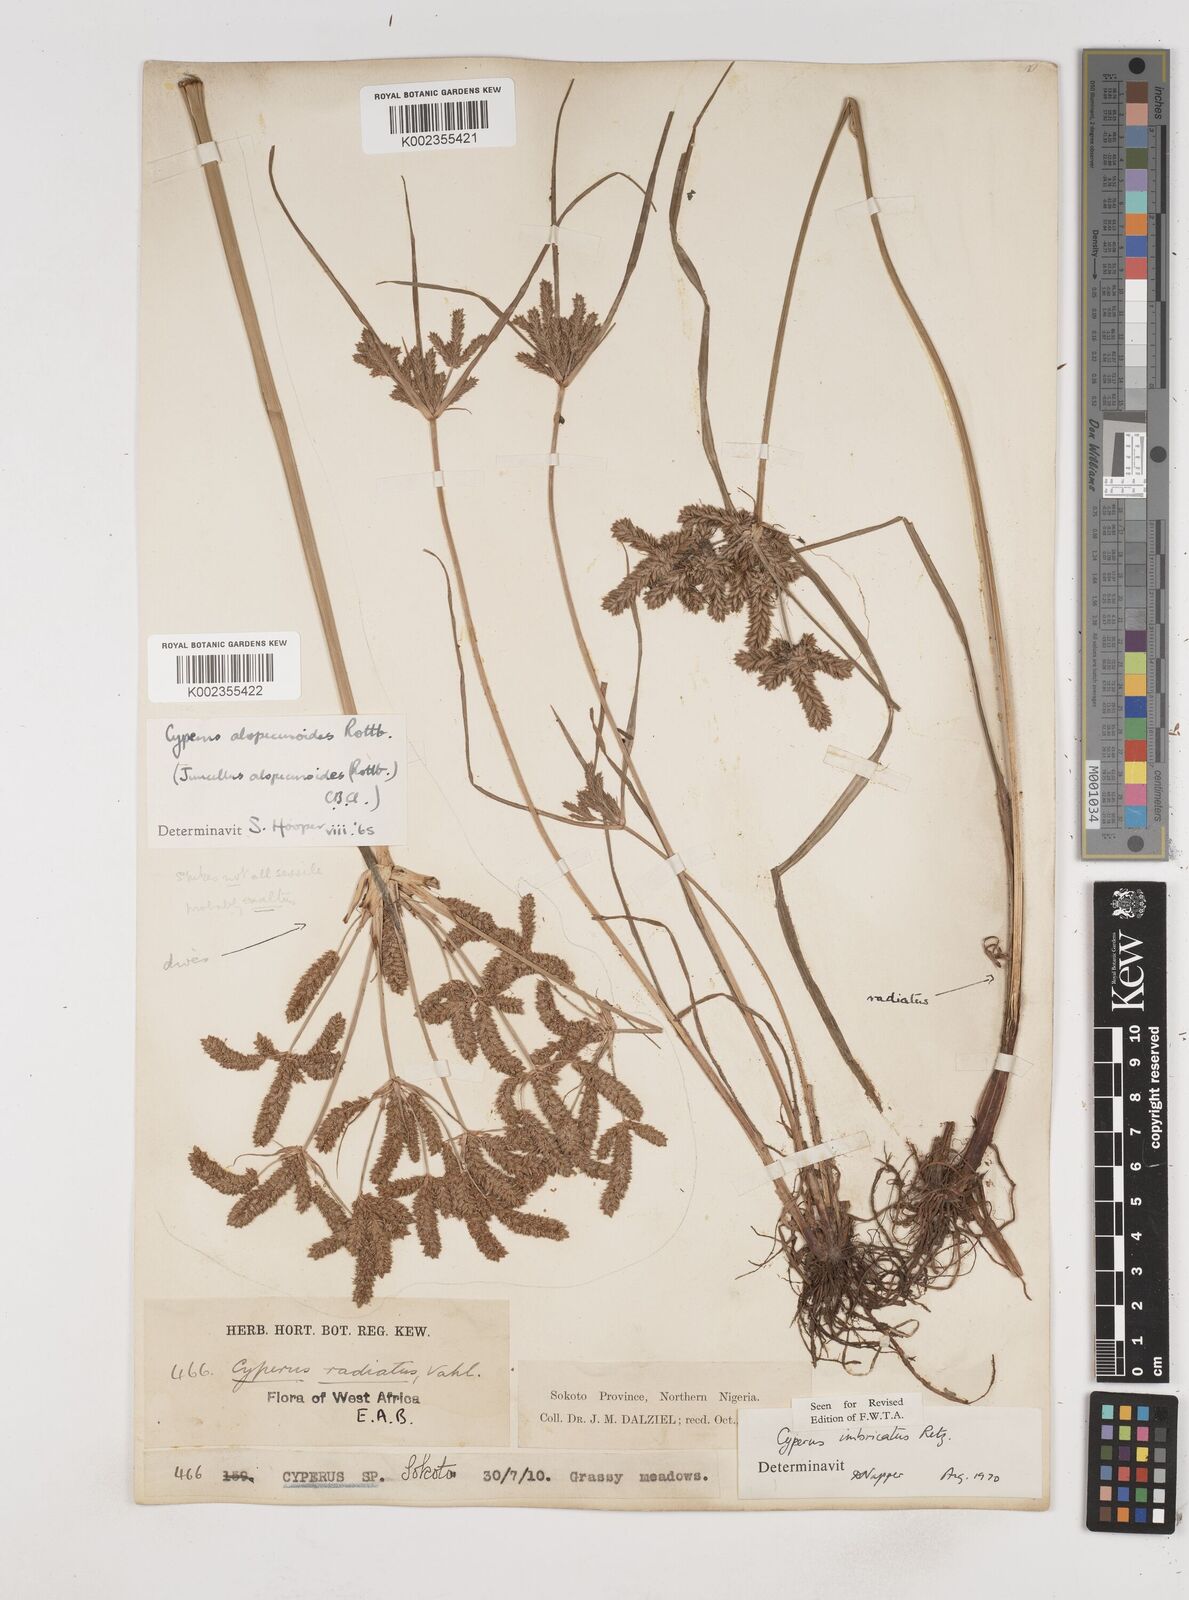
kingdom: Plantae
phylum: Tracheophyta
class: Liliopsida
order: Poales
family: Cyperaceae
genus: Cyperus
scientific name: Cyperus imbricatus
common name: Shingle flatsedge
